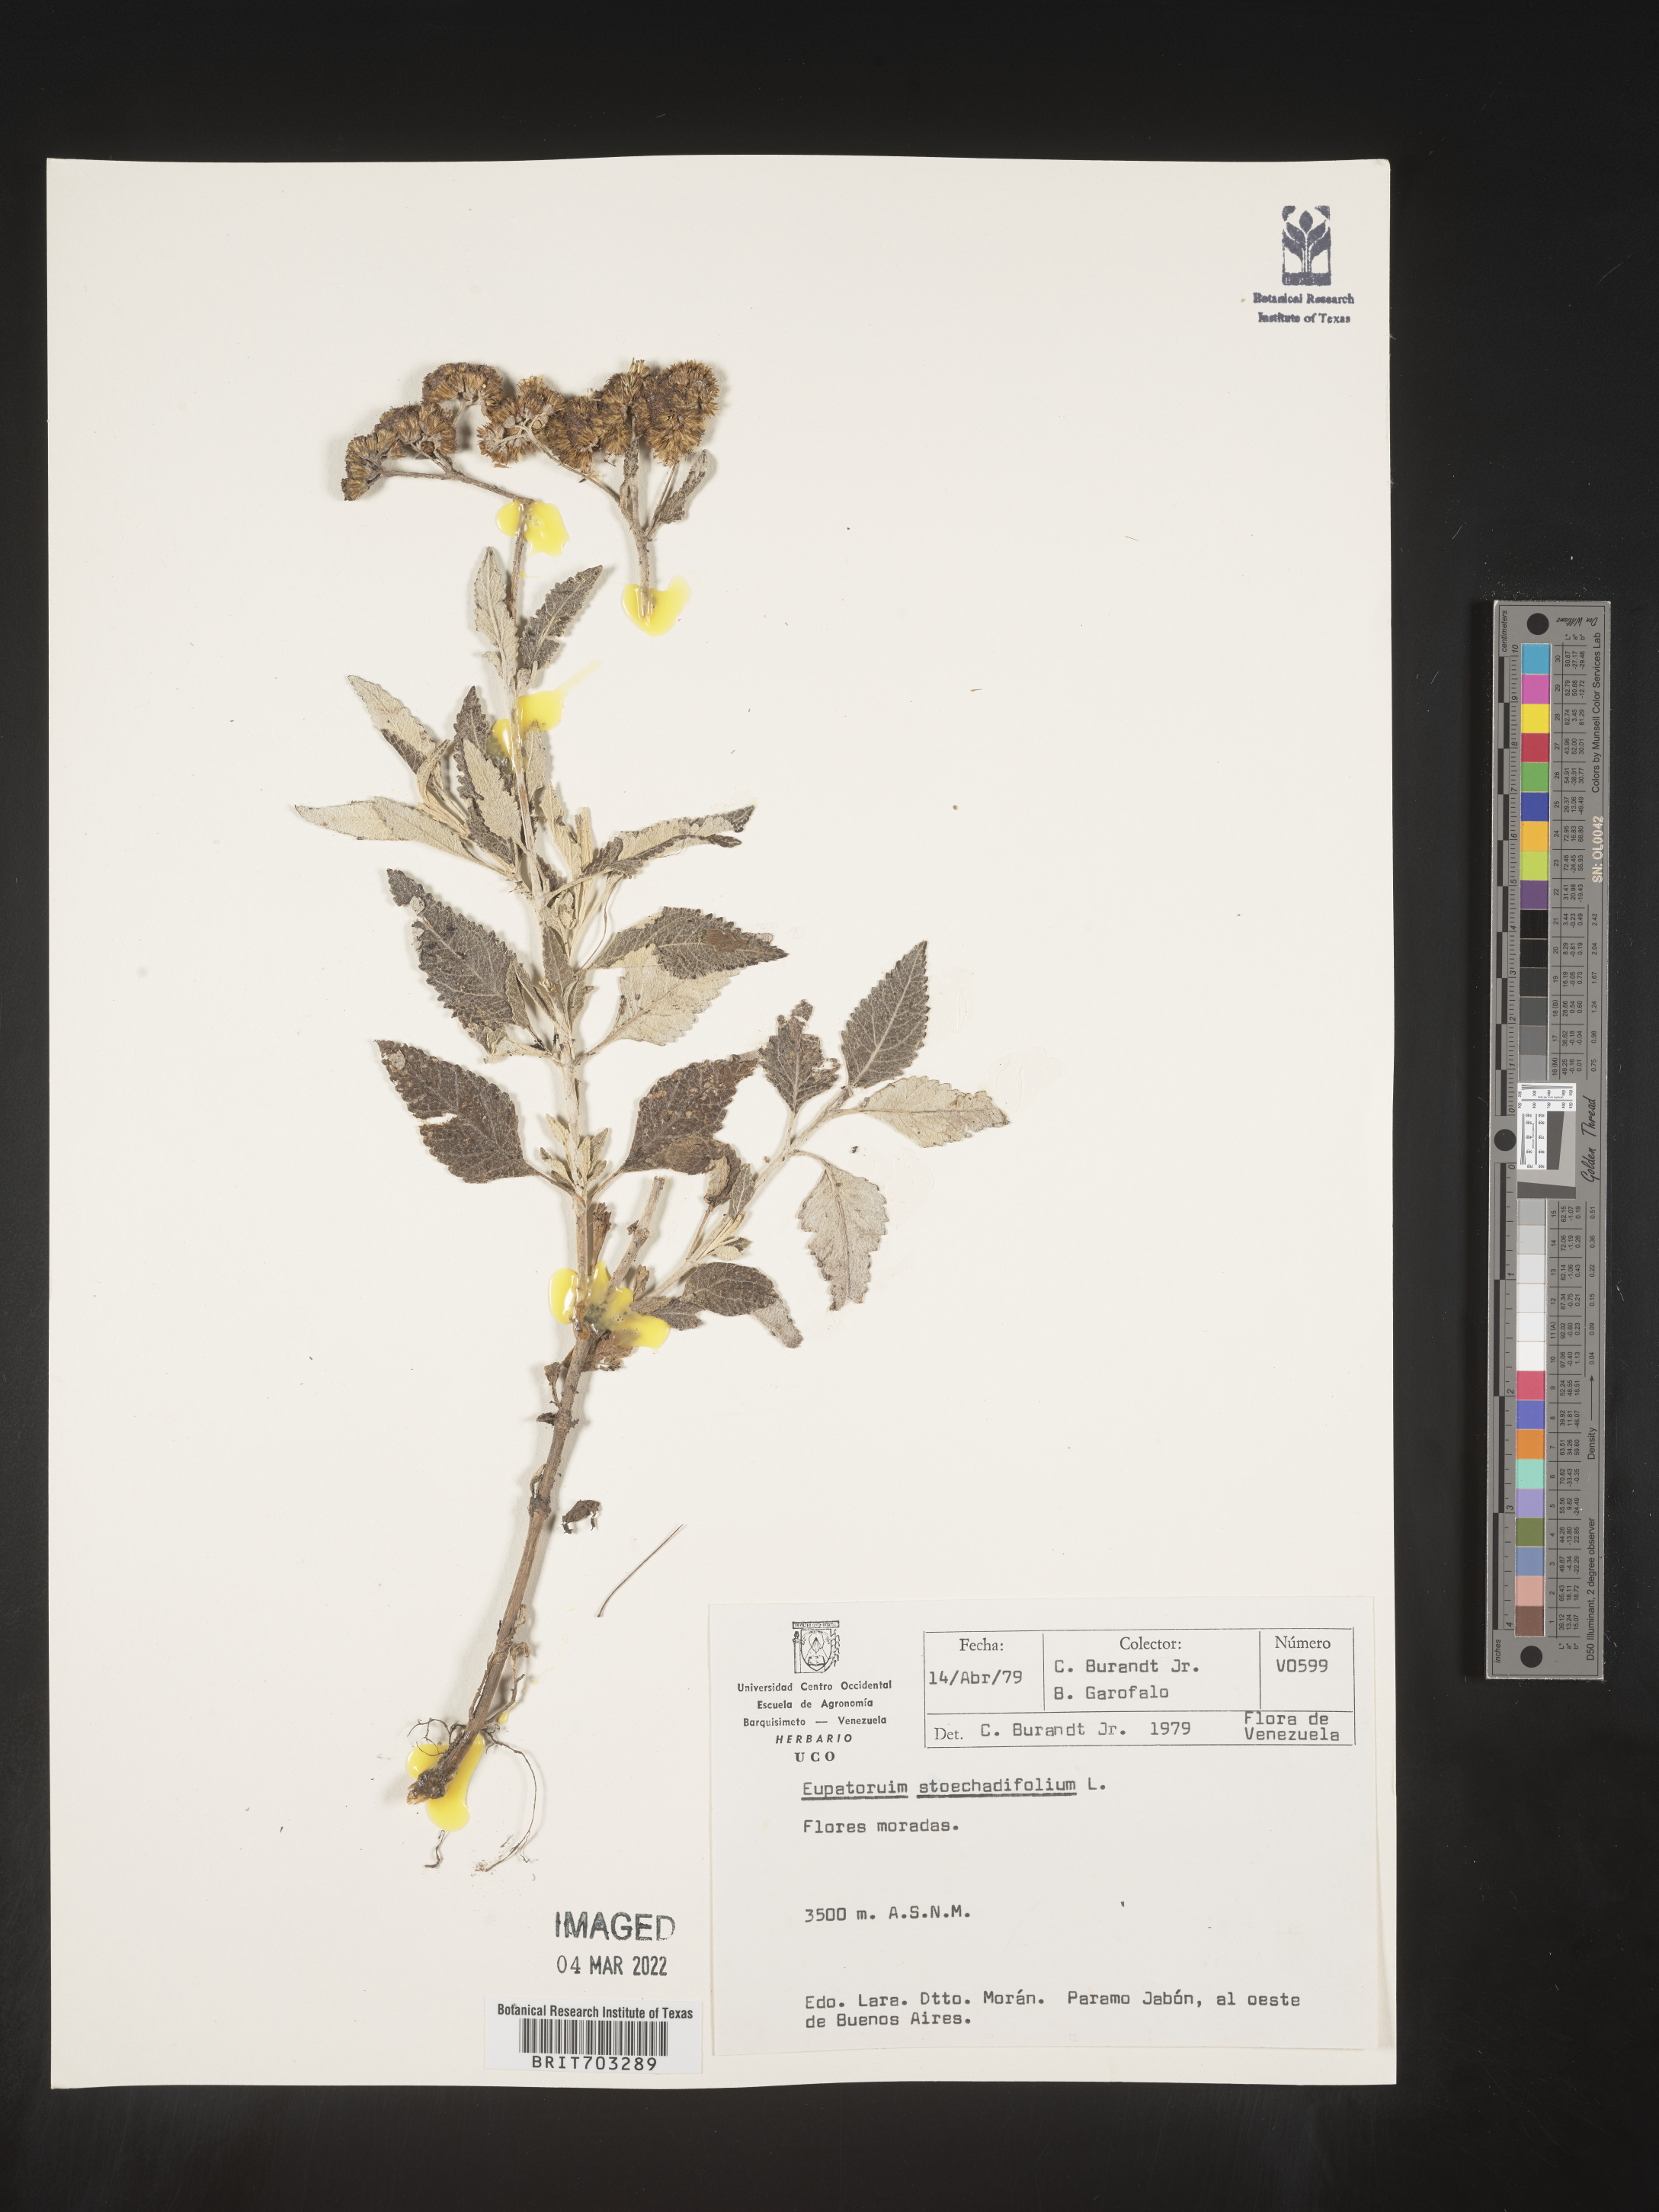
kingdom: Plantae
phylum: Tracheophyta
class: Magnoliopsida
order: Asterales
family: Asteraceae
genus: Eupatorium
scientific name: Eupatorium
